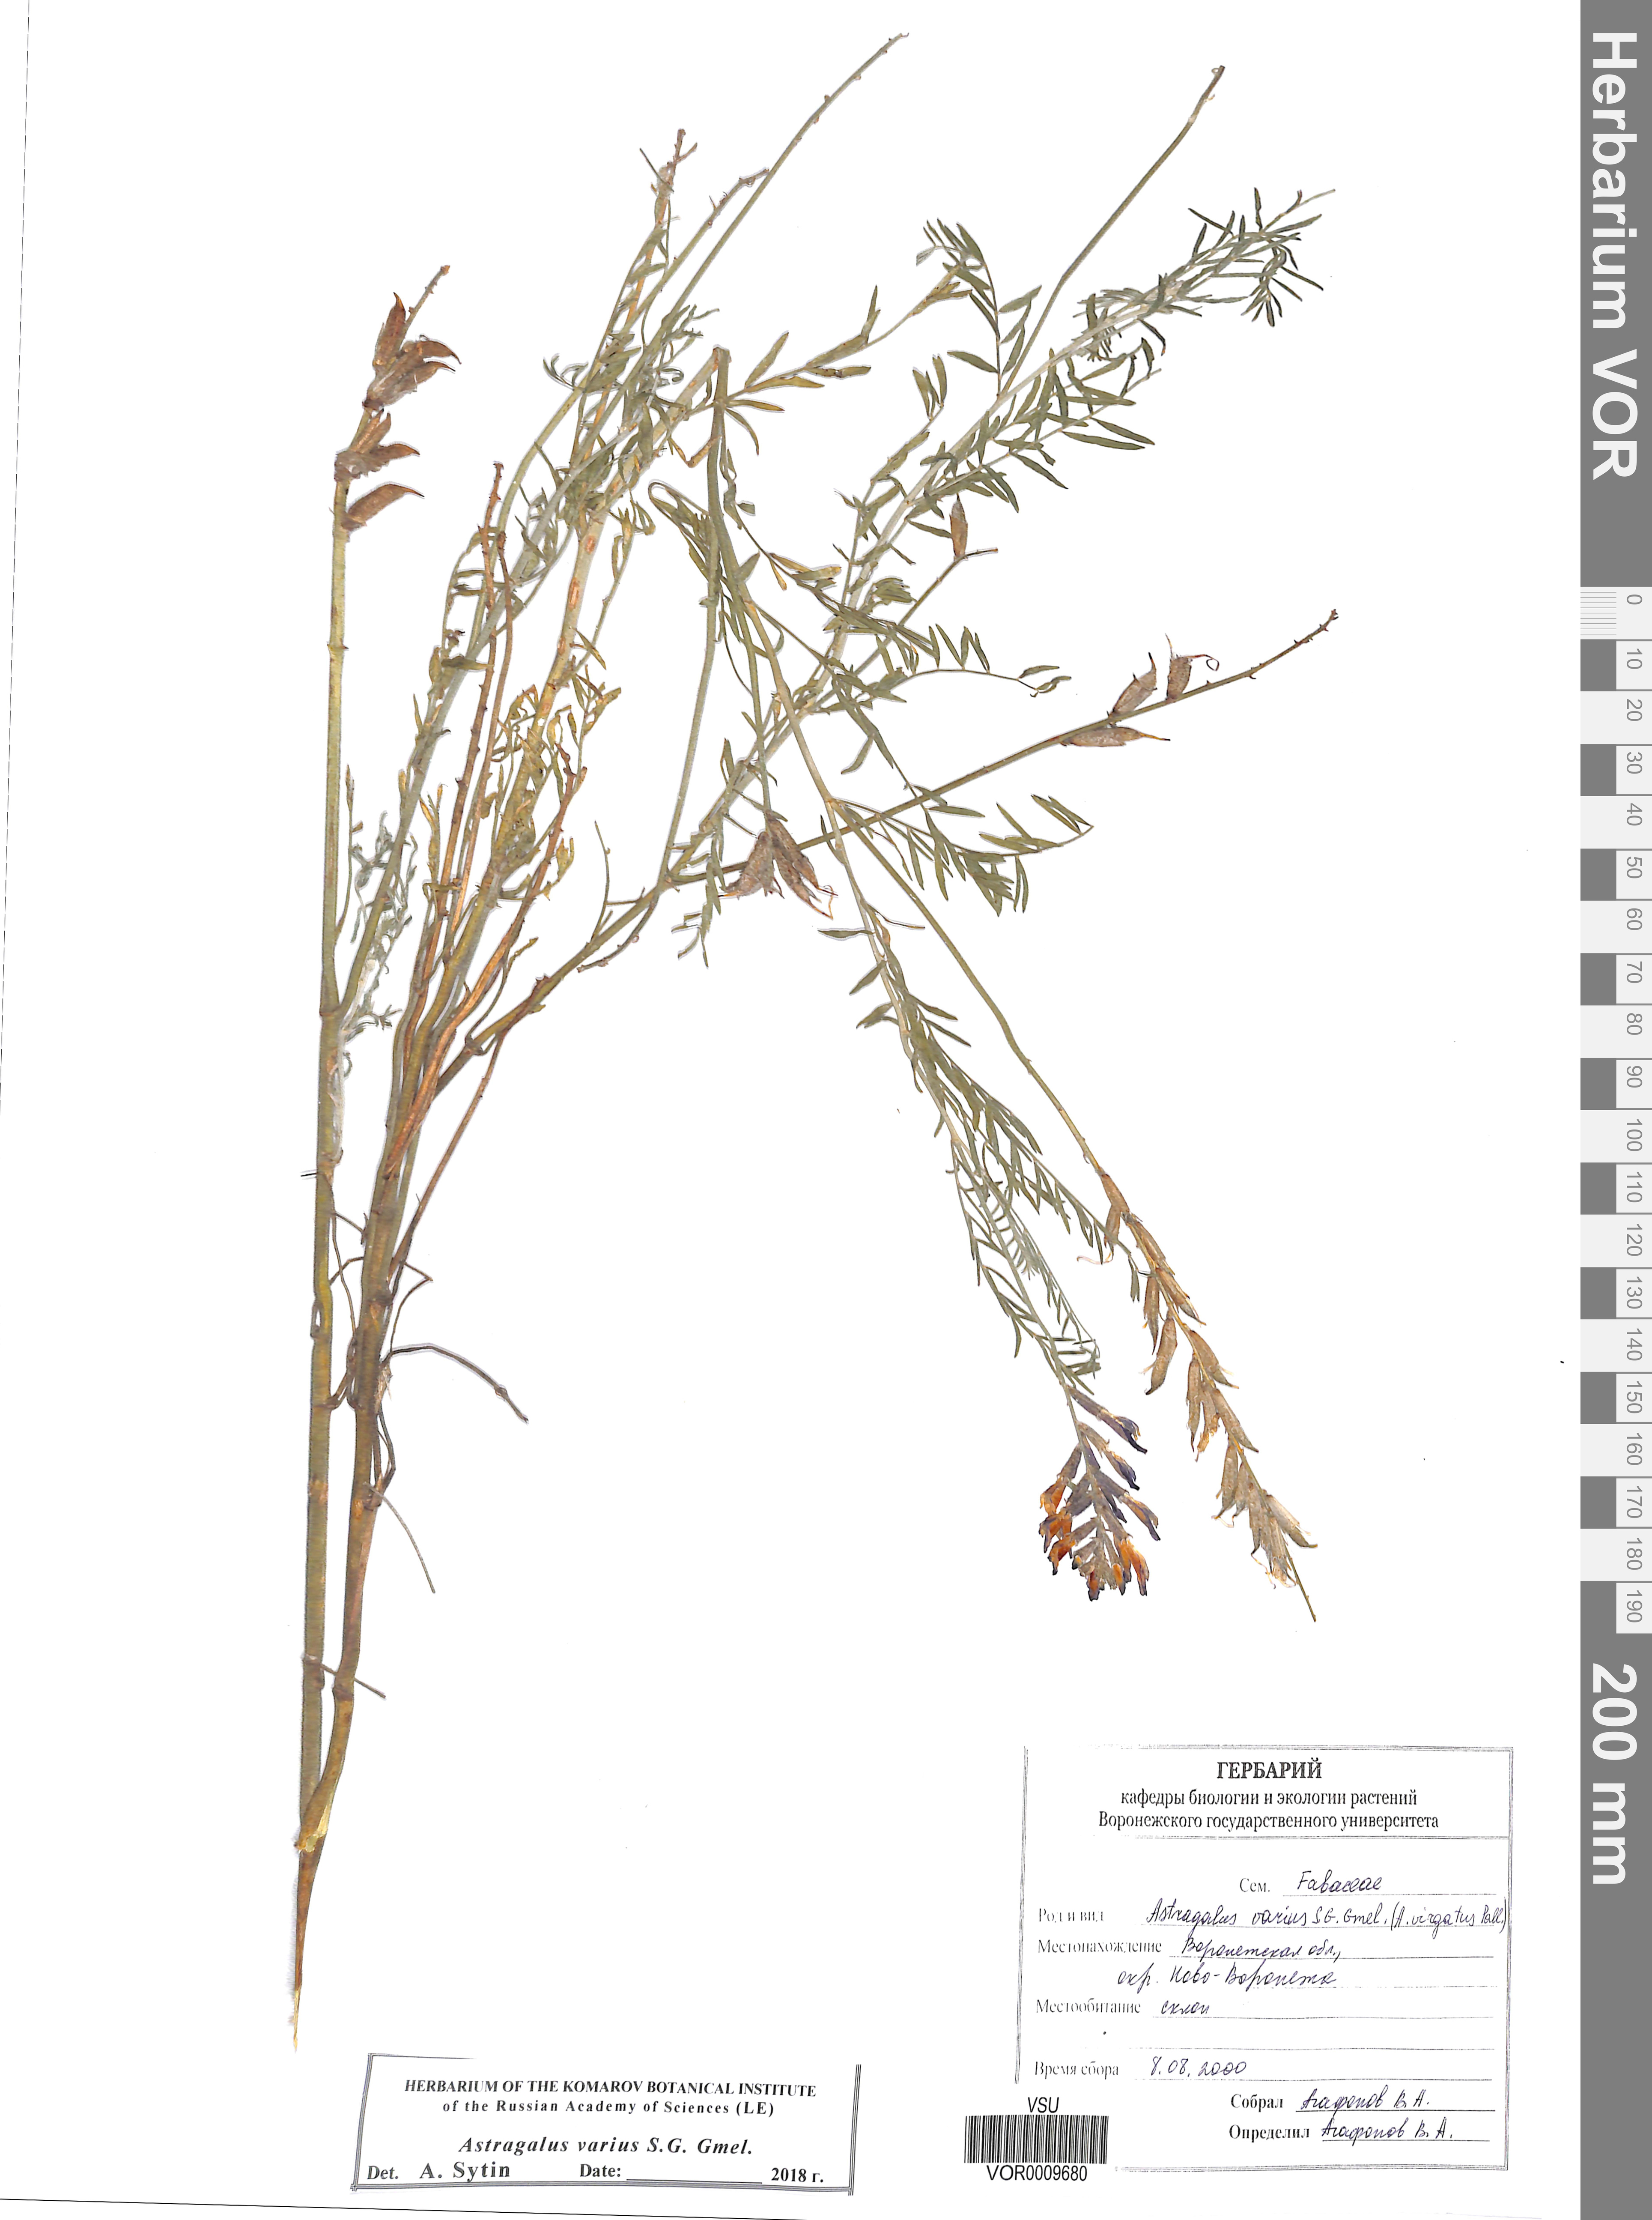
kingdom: Plantae
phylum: Tracheophyta
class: Magnoliopsida
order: Fabales
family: Fabaceae
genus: Astragalus
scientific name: Astragalus varius
